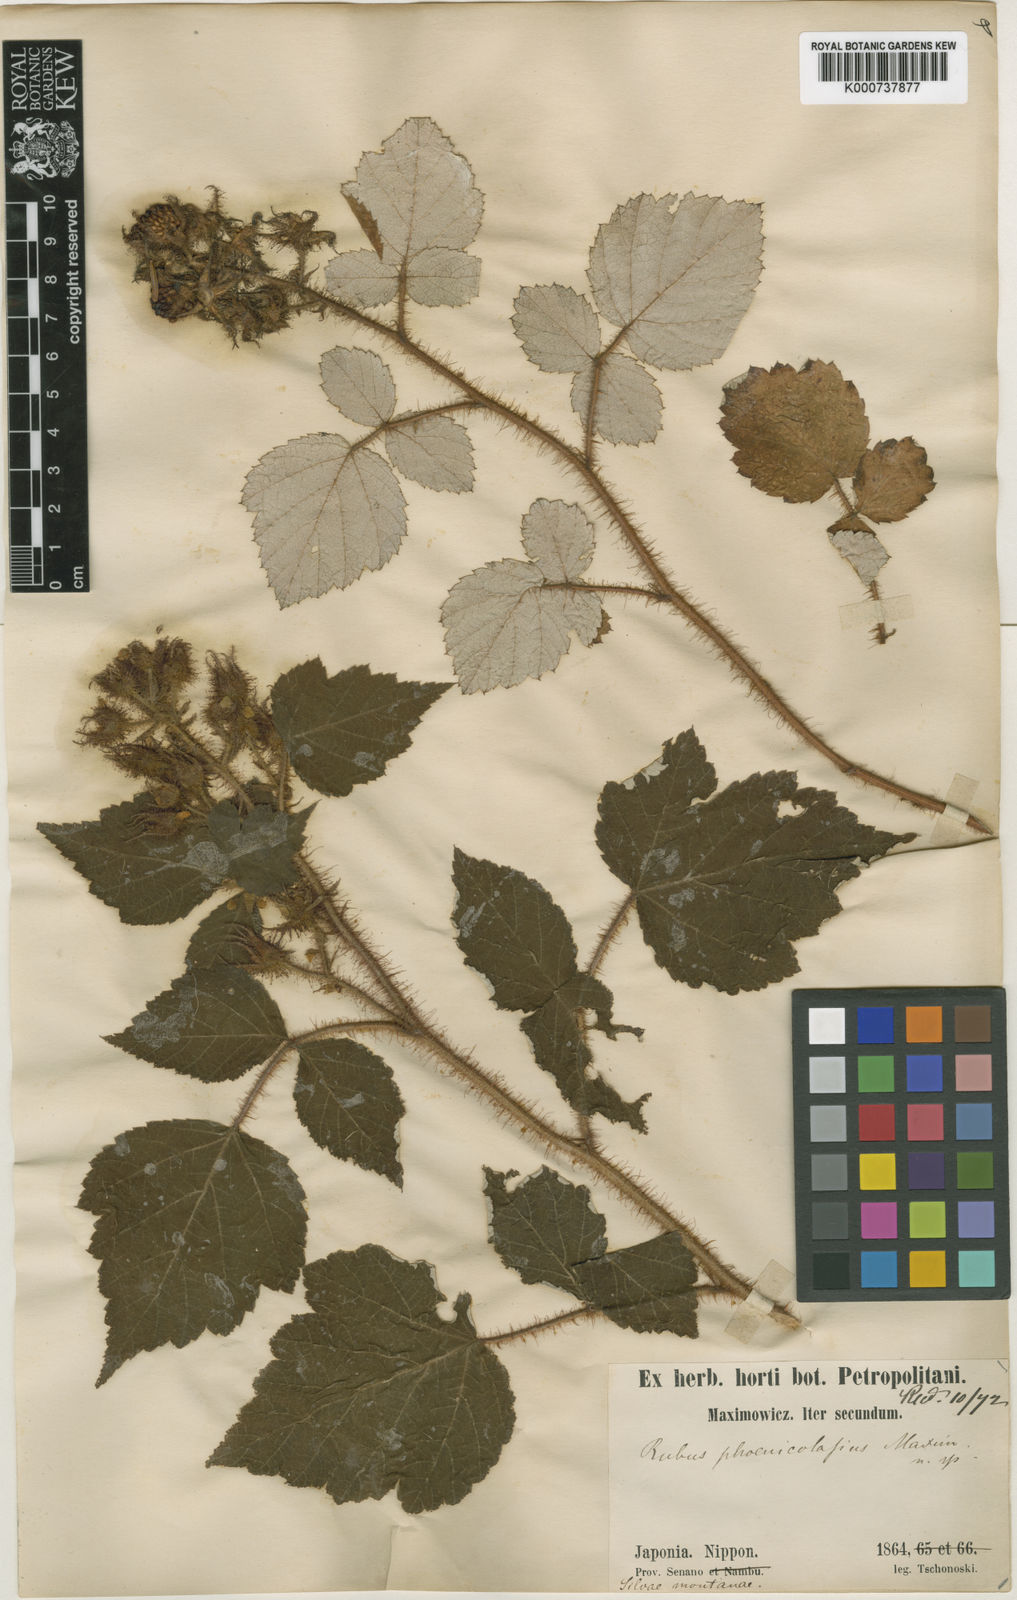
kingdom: Plantae
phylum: Tracheophyta
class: Magnoliopsida
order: Rosales
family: Rosaceae
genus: Rubus
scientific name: Rubus phoenicolasius
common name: Japanese wineberry
